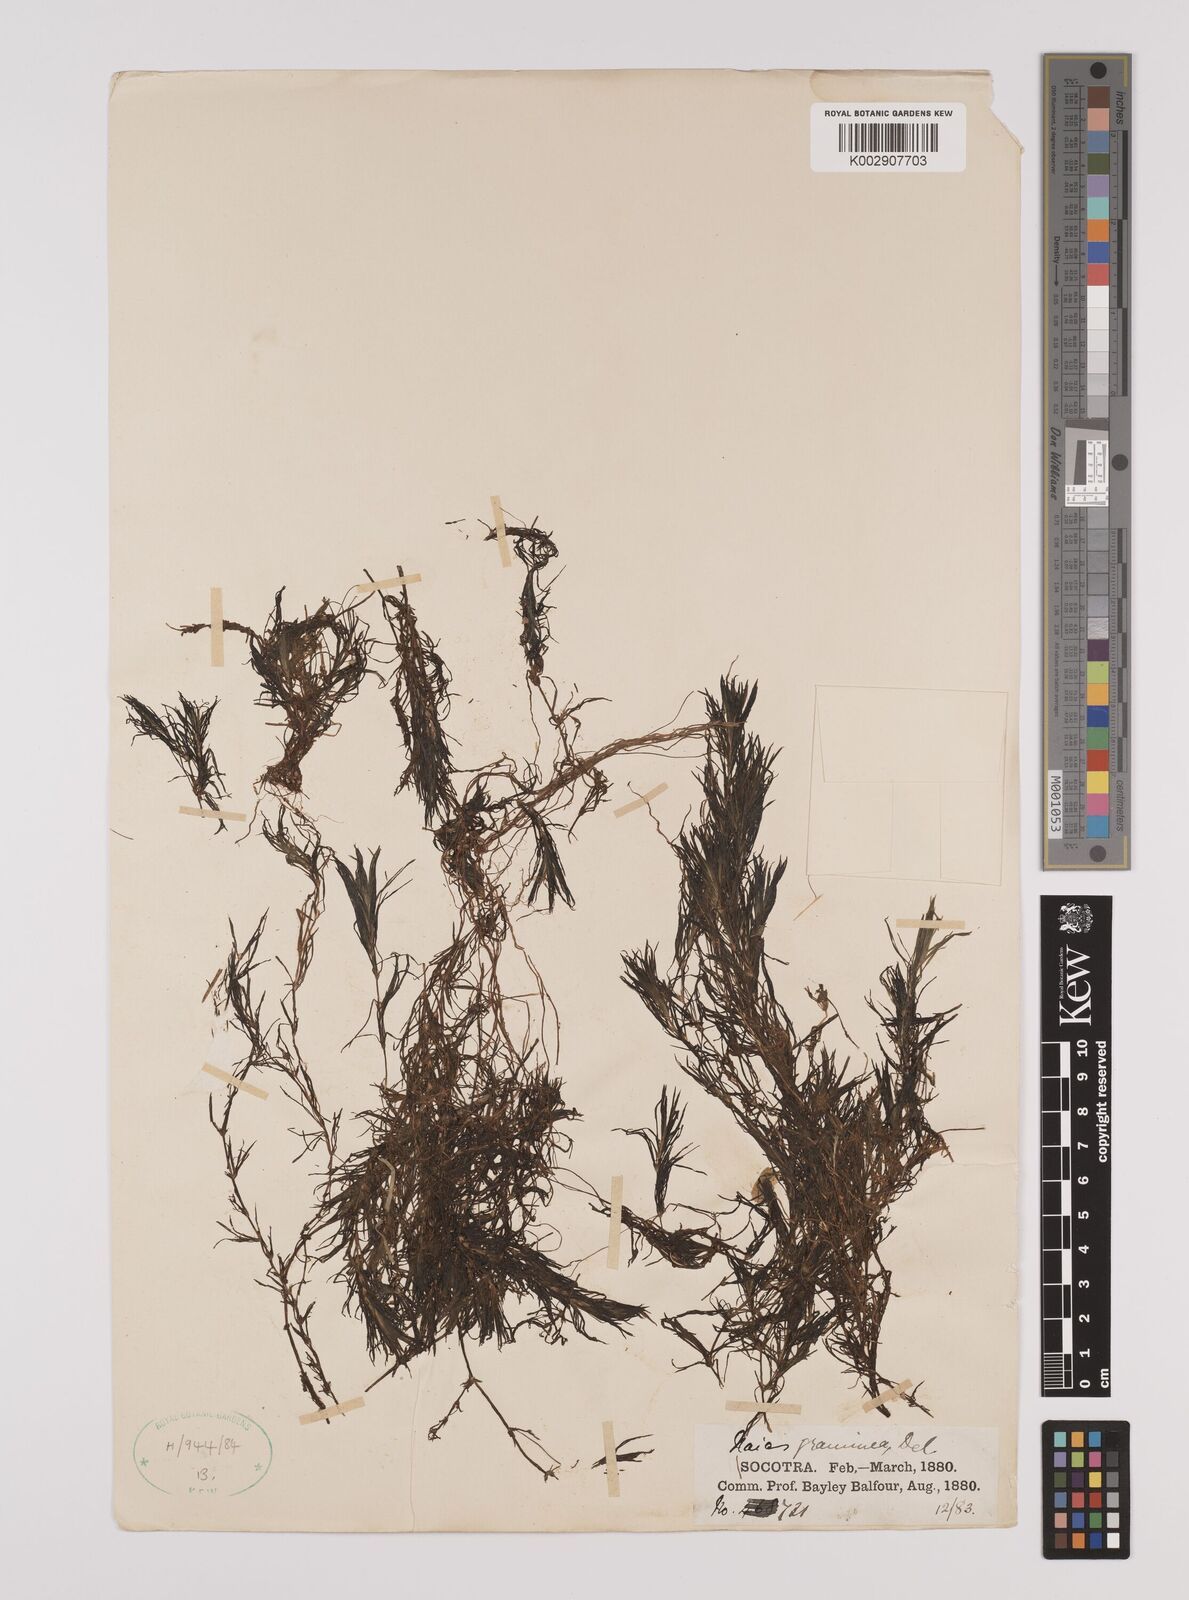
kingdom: Plantae
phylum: Tracheophyta
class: Liliopsida
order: Alismatales
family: Hydrocharitaceae
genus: Najas
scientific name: Najas graminea
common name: Ricefield waternymph
